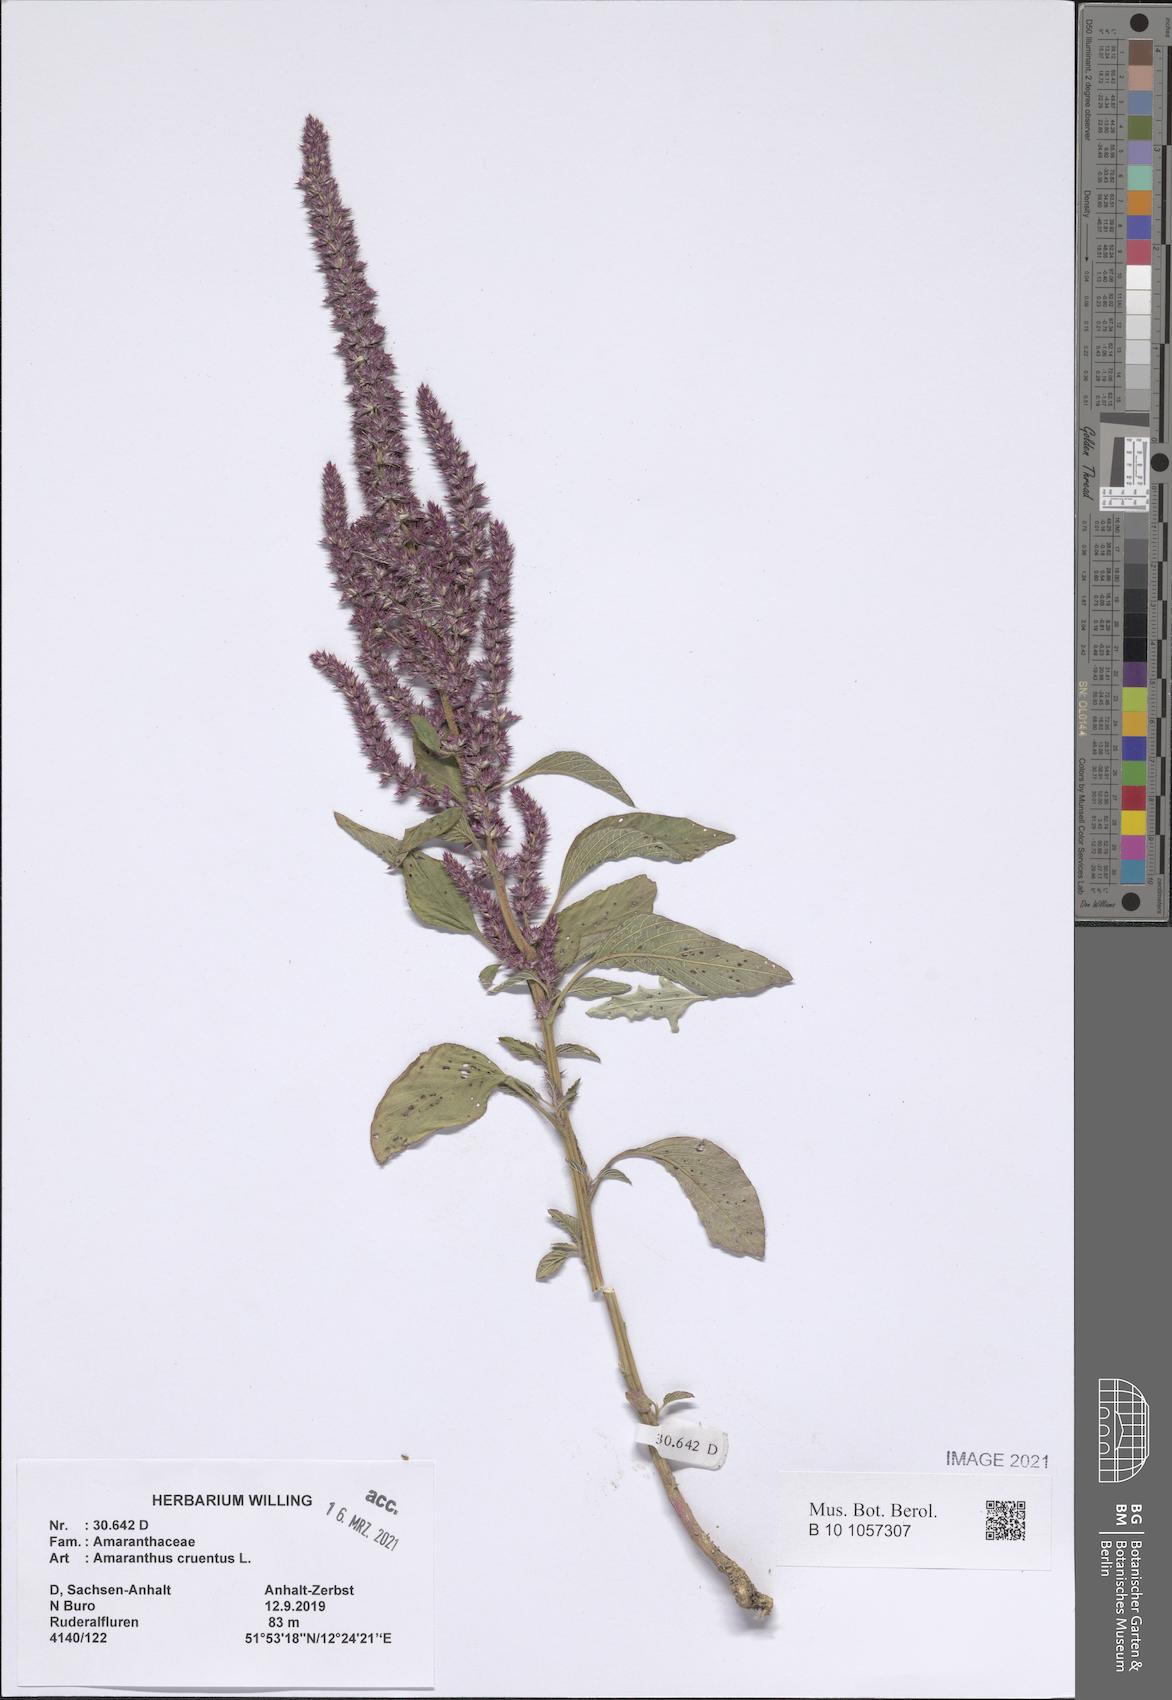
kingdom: Plantae
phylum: Tracheophyta
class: Magnoliopsida
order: Caryophyllales
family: Amaranthaceae
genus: Amaranthus
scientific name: Amaranthus cruentus
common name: Purple amaranth
